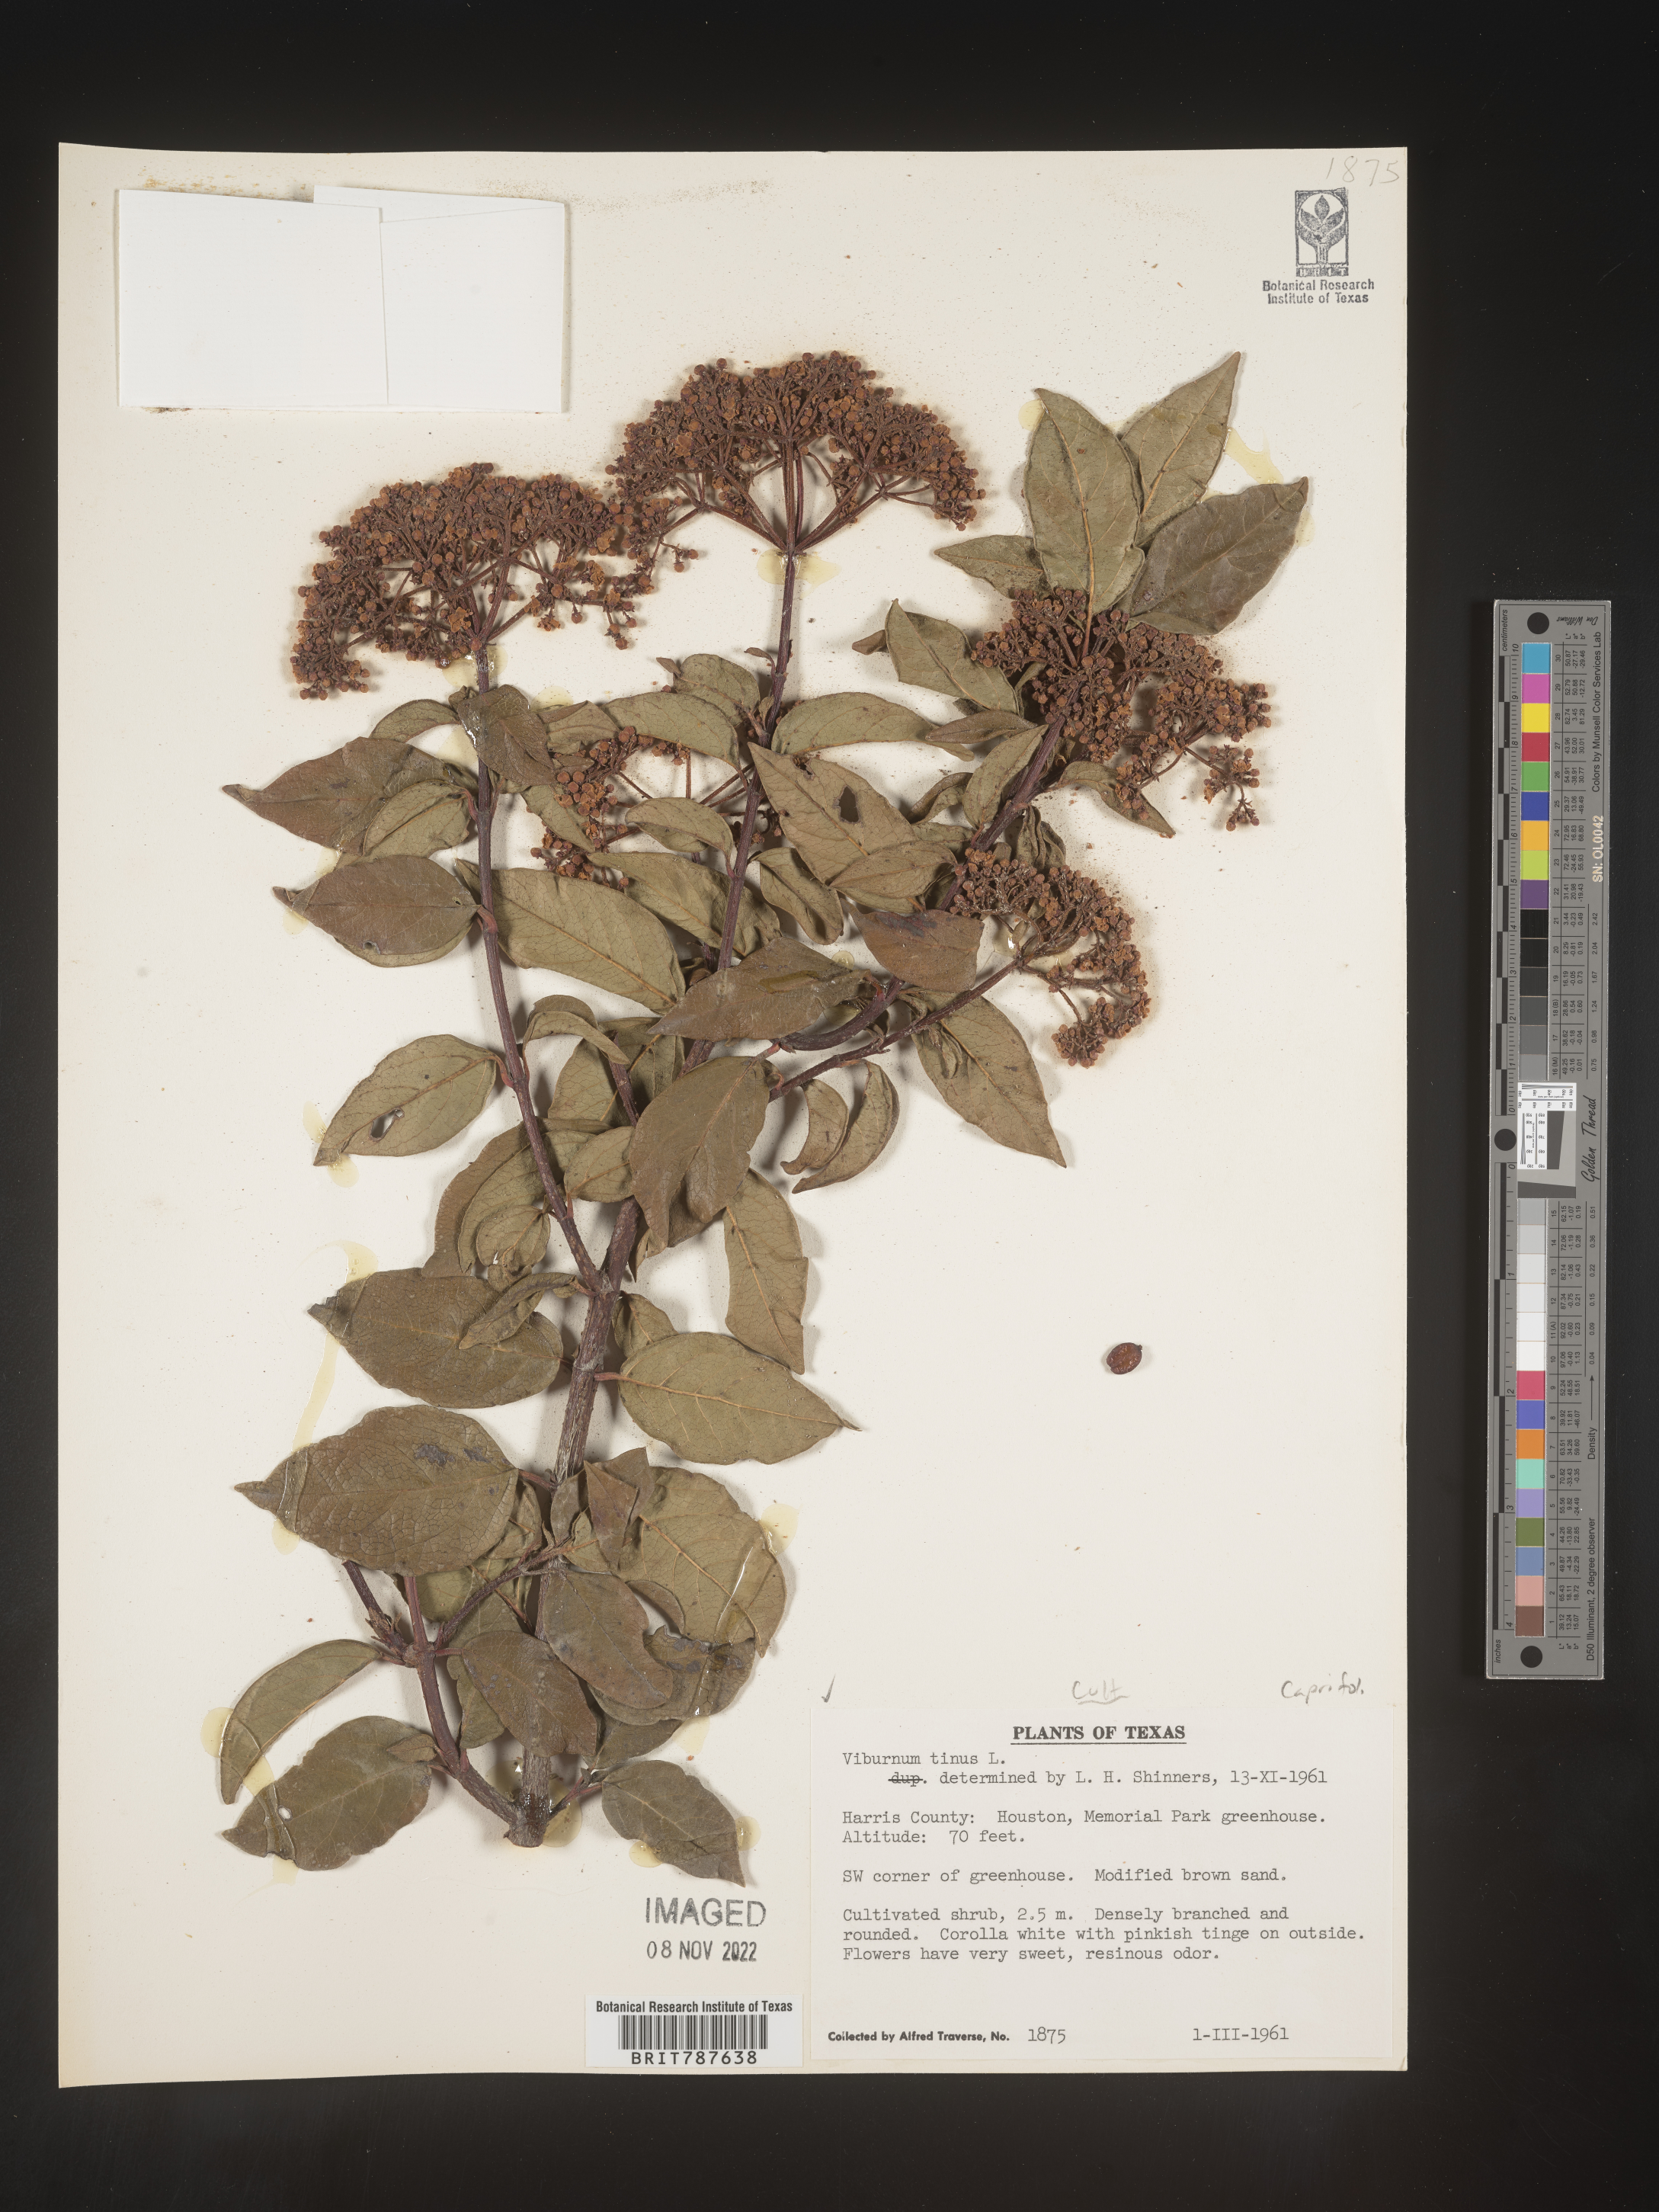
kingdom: Plantae
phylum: Tracheophyta
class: Magnoliopsida
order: Dipsacales
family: Viburnaceae
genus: Viburnum
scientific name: Viburnum
